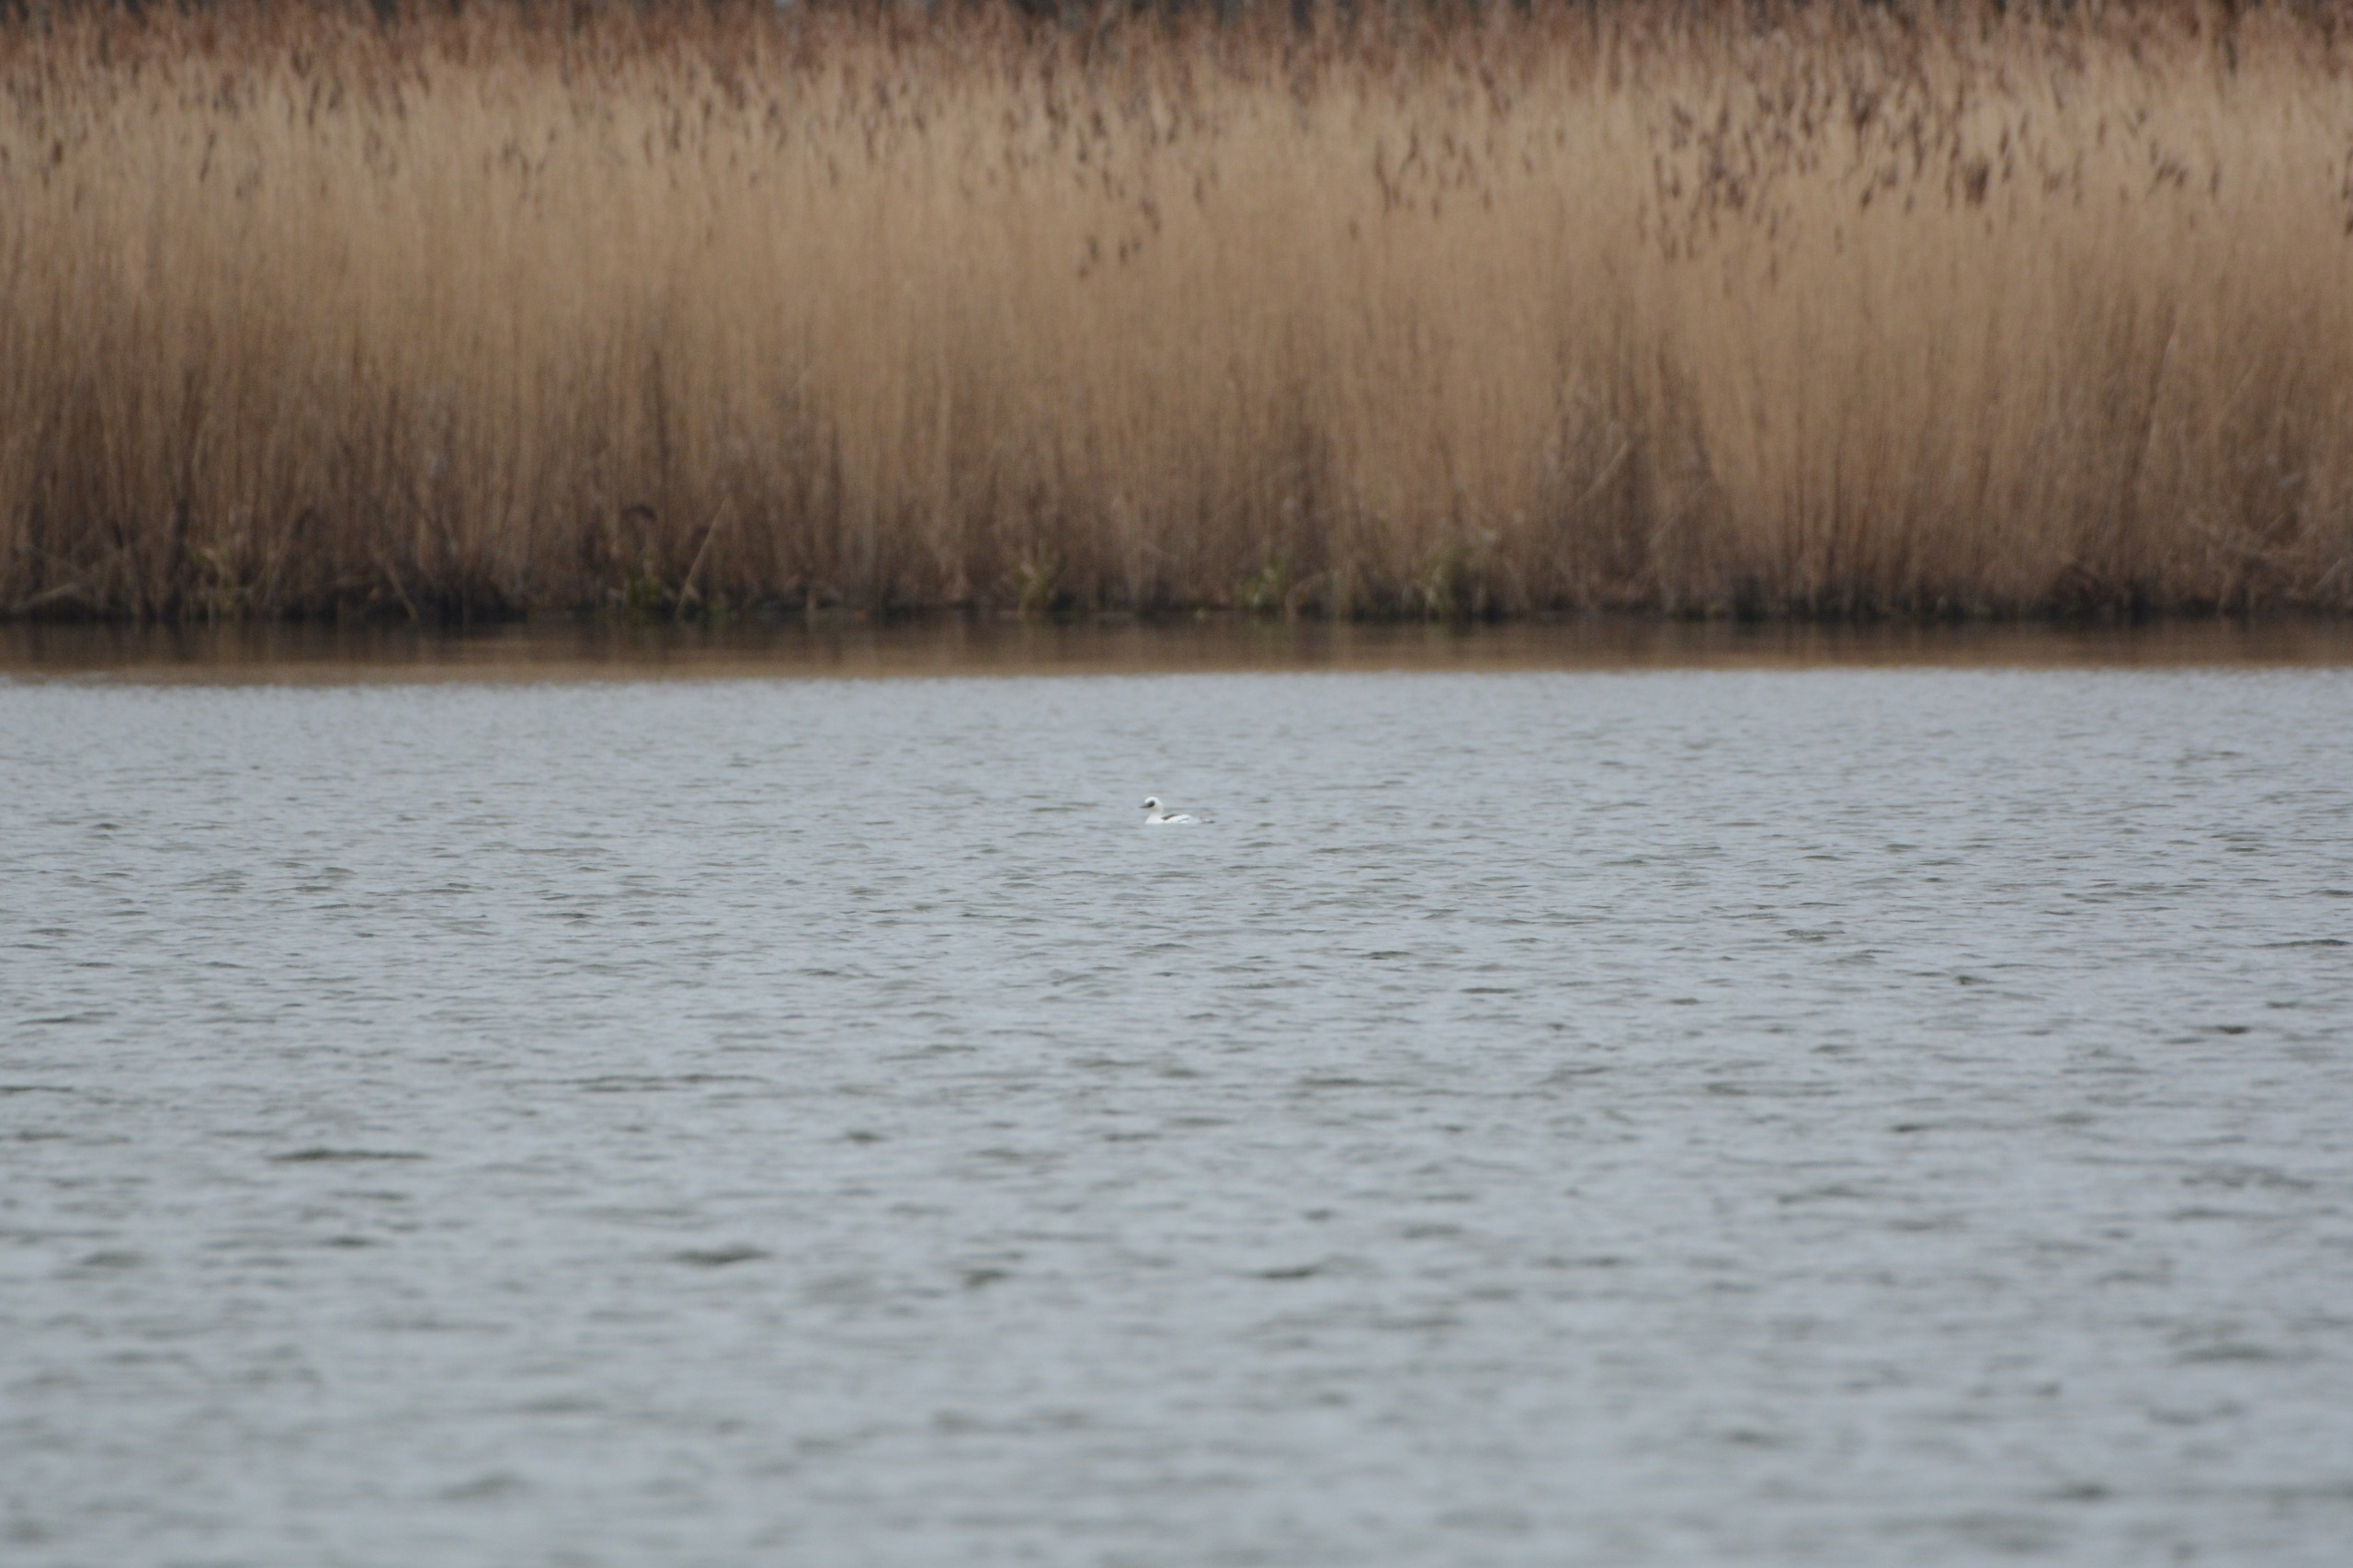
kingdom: Animalia
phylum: Chordata
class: Aves
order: Anseriformes
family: Anatidae
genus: Mergellus
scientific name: Mergellus albellus
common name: Lille skallesluger
